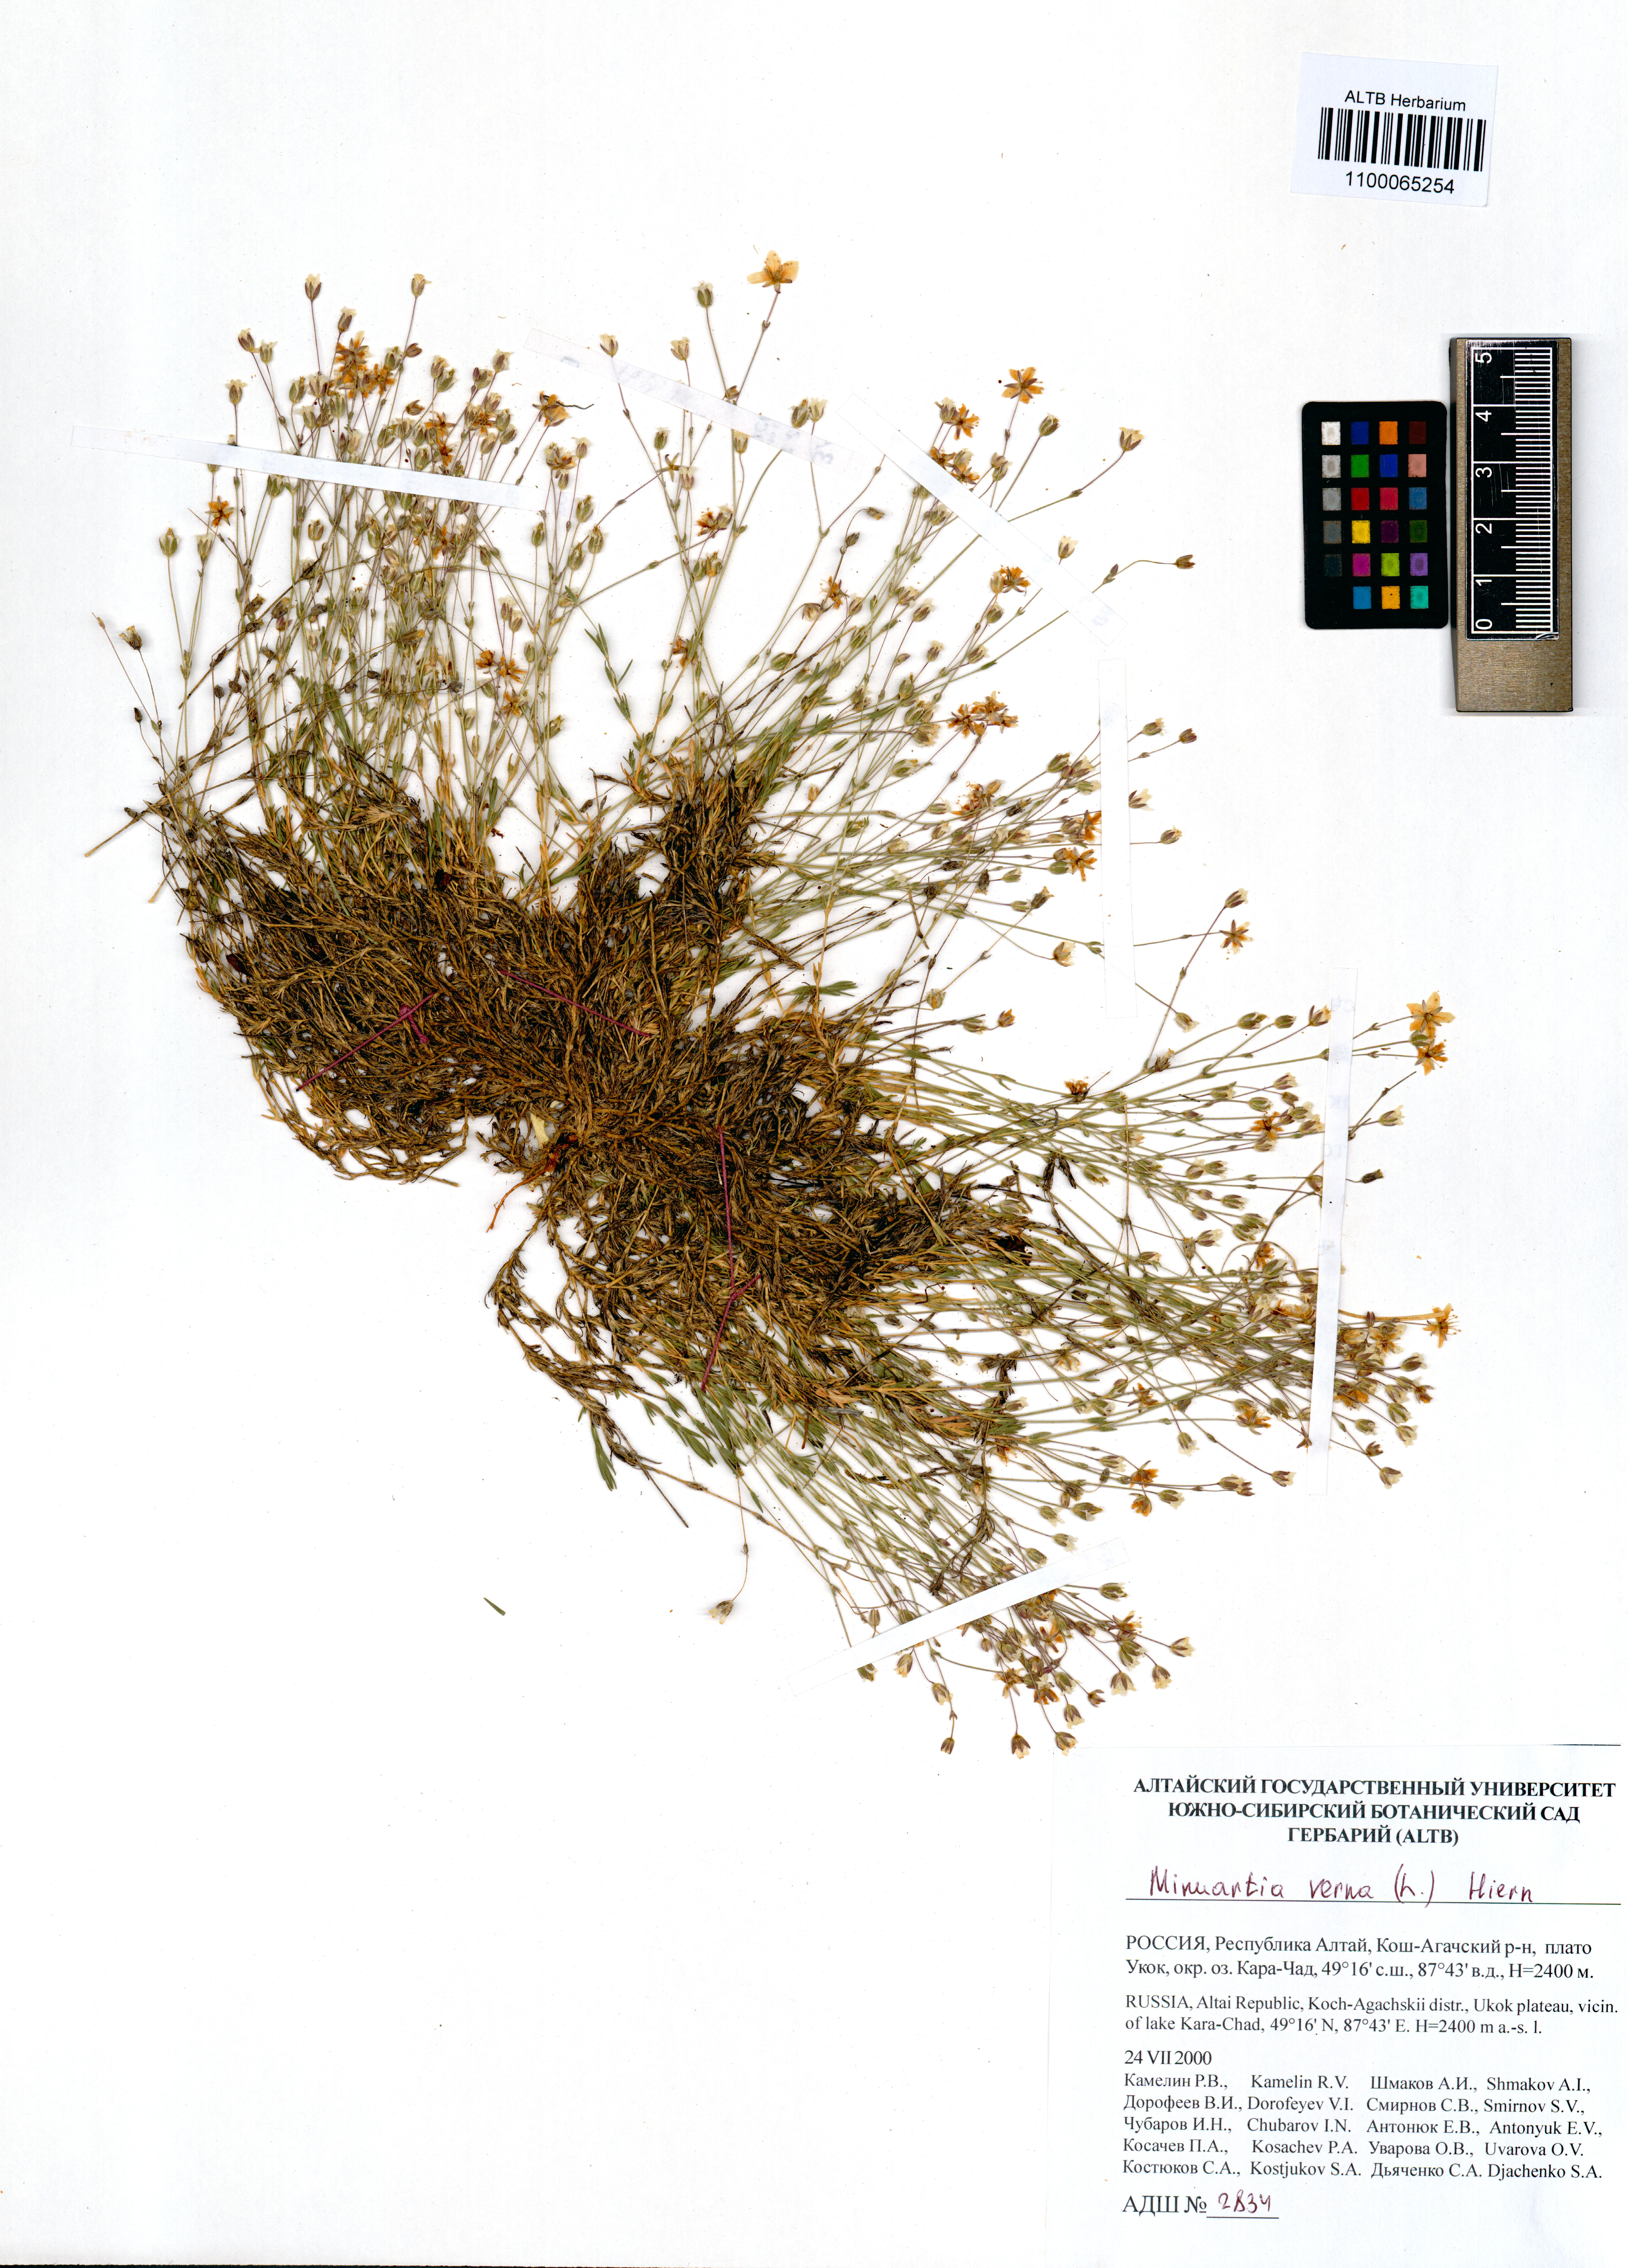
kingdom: Plantae
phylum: Tracheophyta
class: Magnoliopsida
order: Caryophyllales
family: Caryophyllaceae
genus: Sabulina
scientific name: Sabulina verna
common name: Spring sandwort
